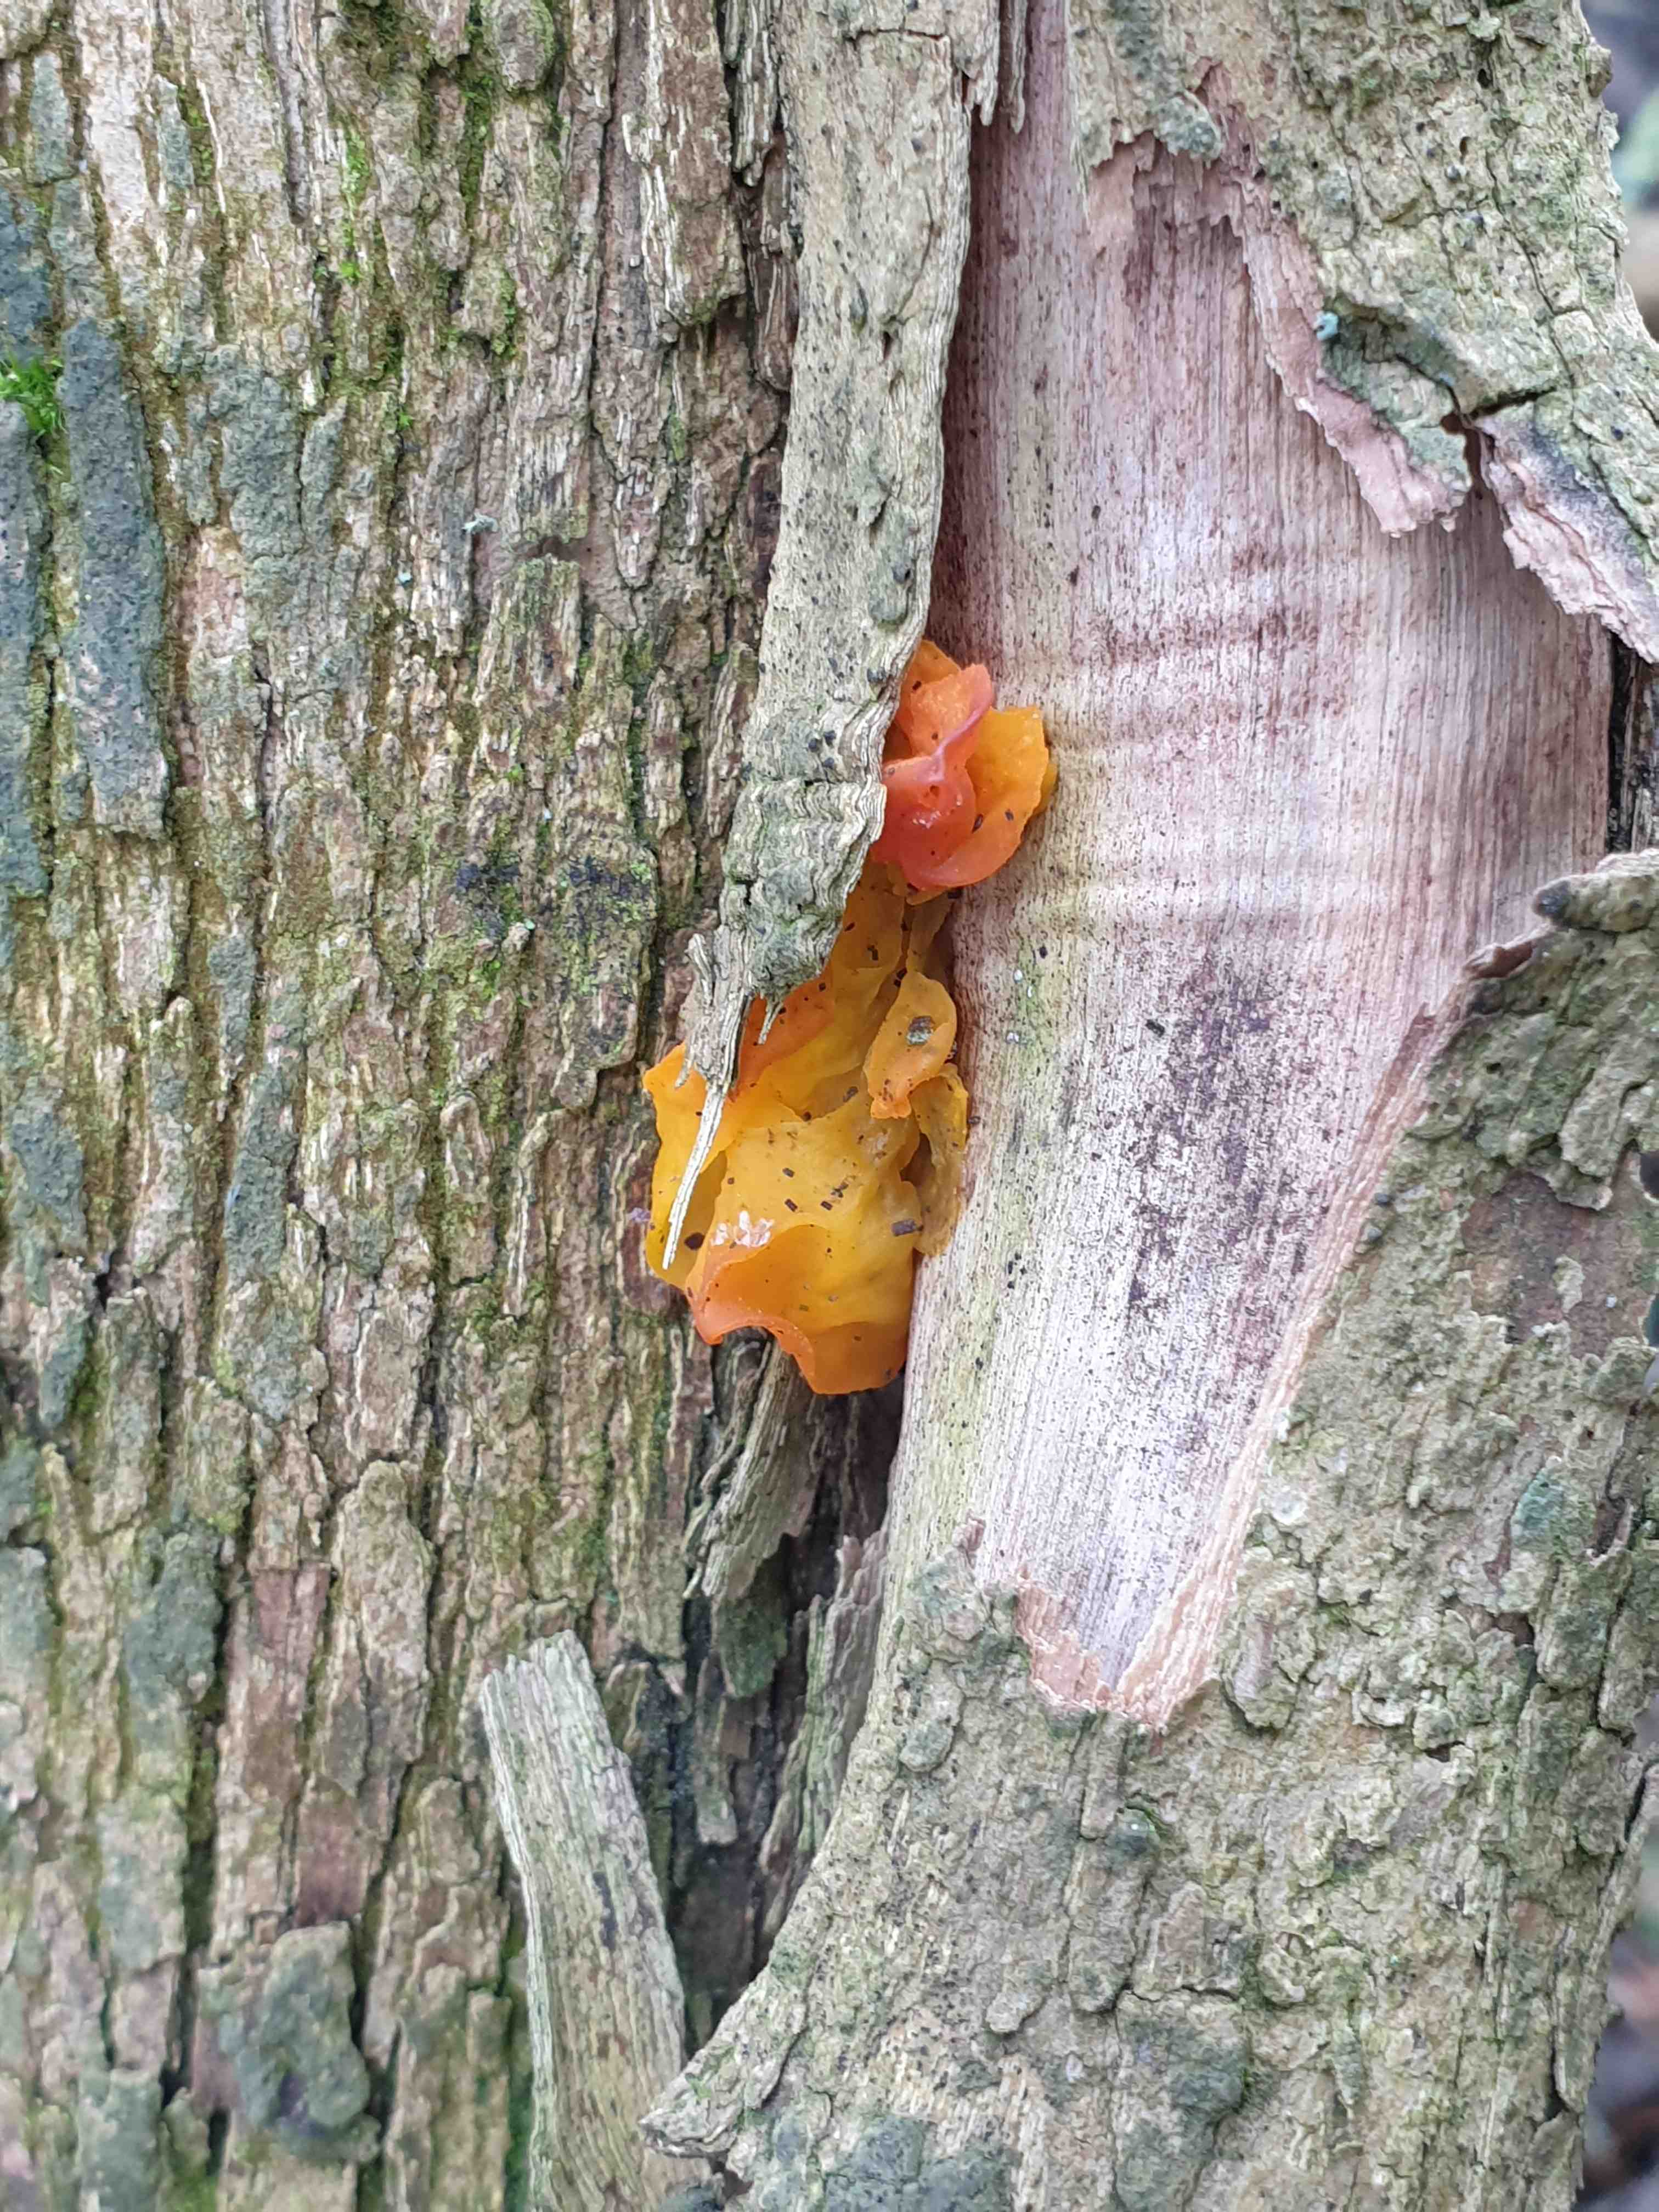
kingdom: Fungi
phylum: Basidiomycota
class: Tremellomycetes
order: Tremellales
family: Tremellaceae
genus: Tremella
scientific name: Tremella mesenterica
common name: gul bævresvamp
